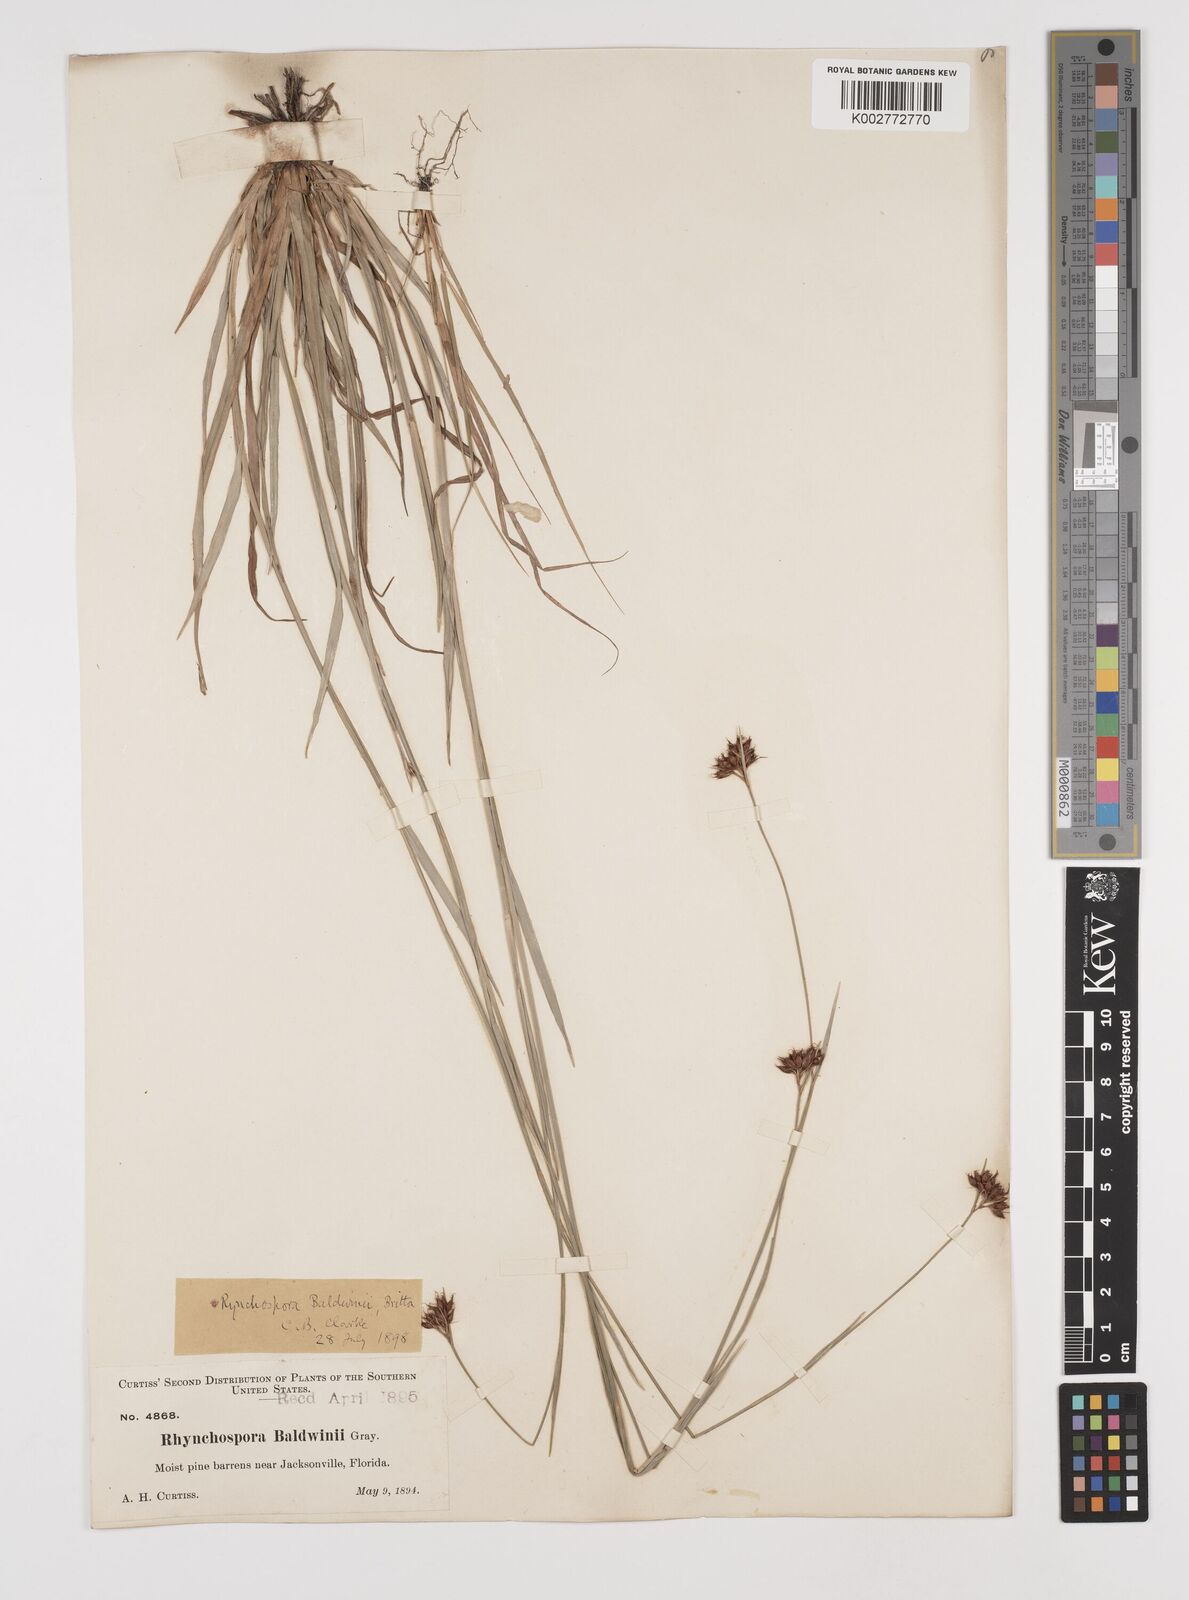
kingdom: Plantae
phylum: Tracheophyta
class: Liliopsida
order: Poales
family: Cyperaceae
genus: Rhynchospora
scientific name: Rhynchospora baldwinii
